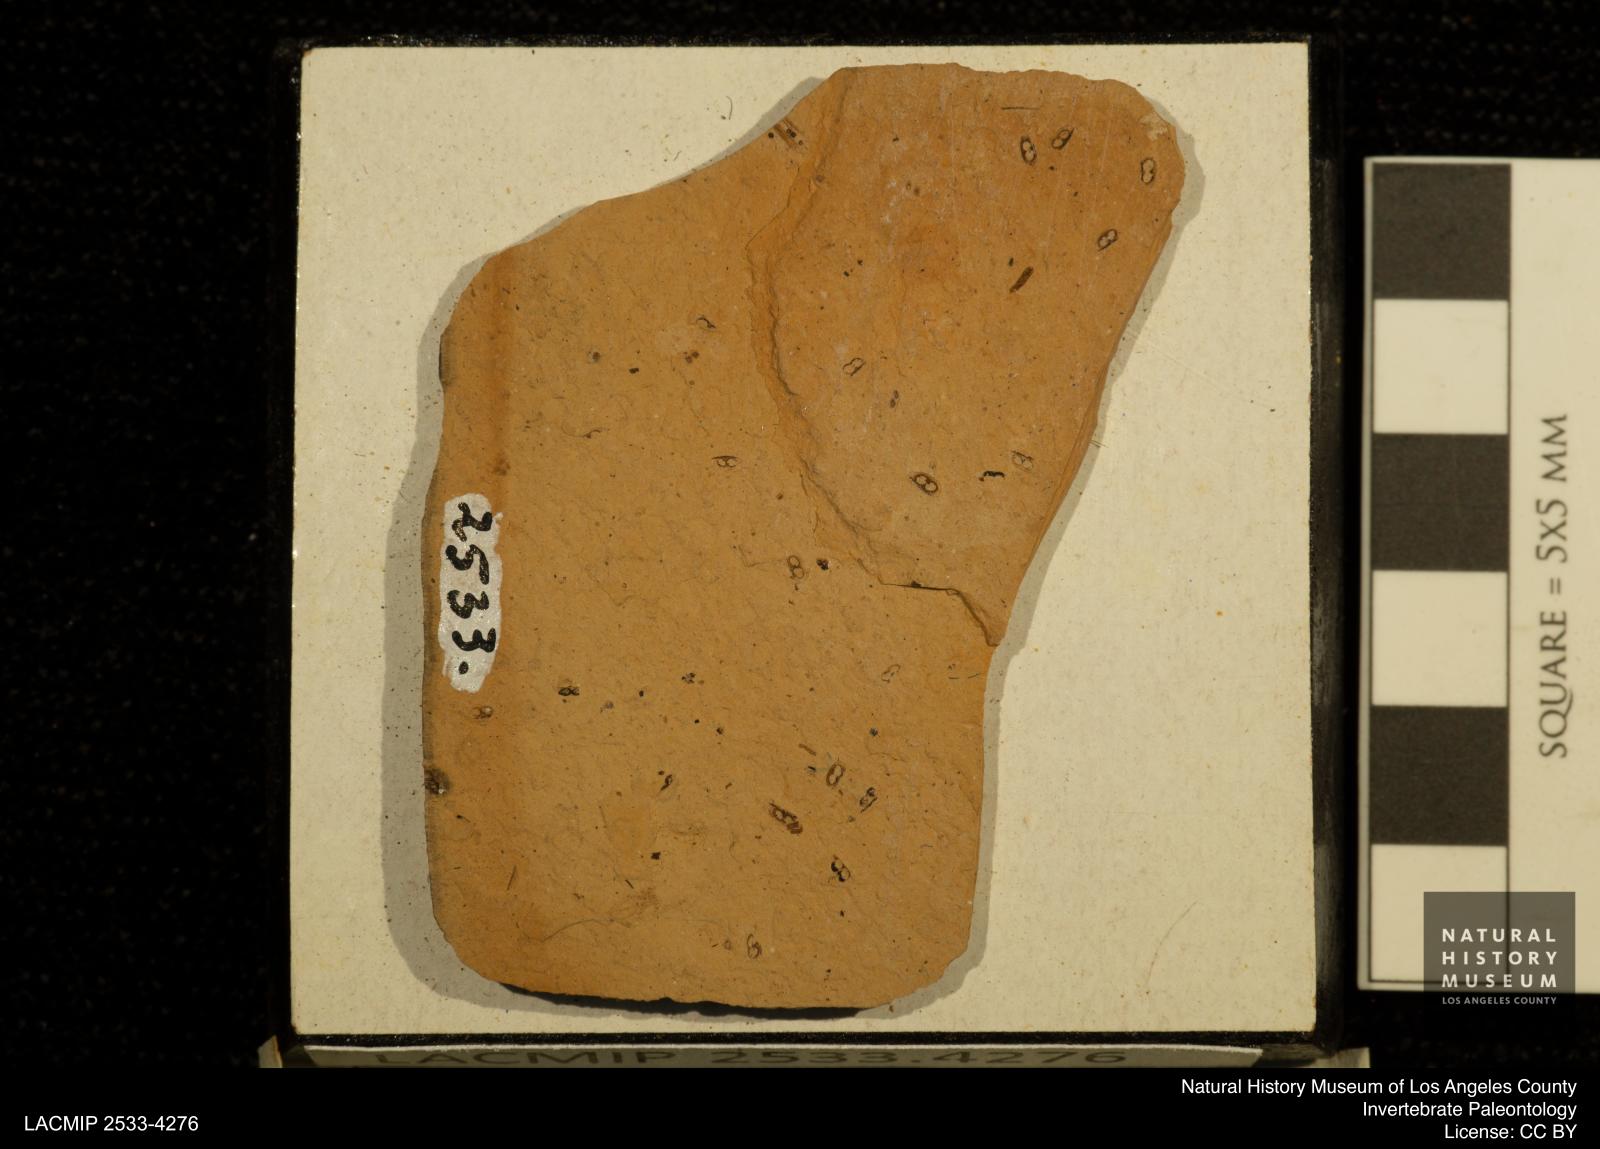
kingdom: Animalia
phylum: Arthropoda
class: Branchiopoda
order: Diplostraca
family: Daphniidae
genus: Daphnia
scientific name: Daphnia
